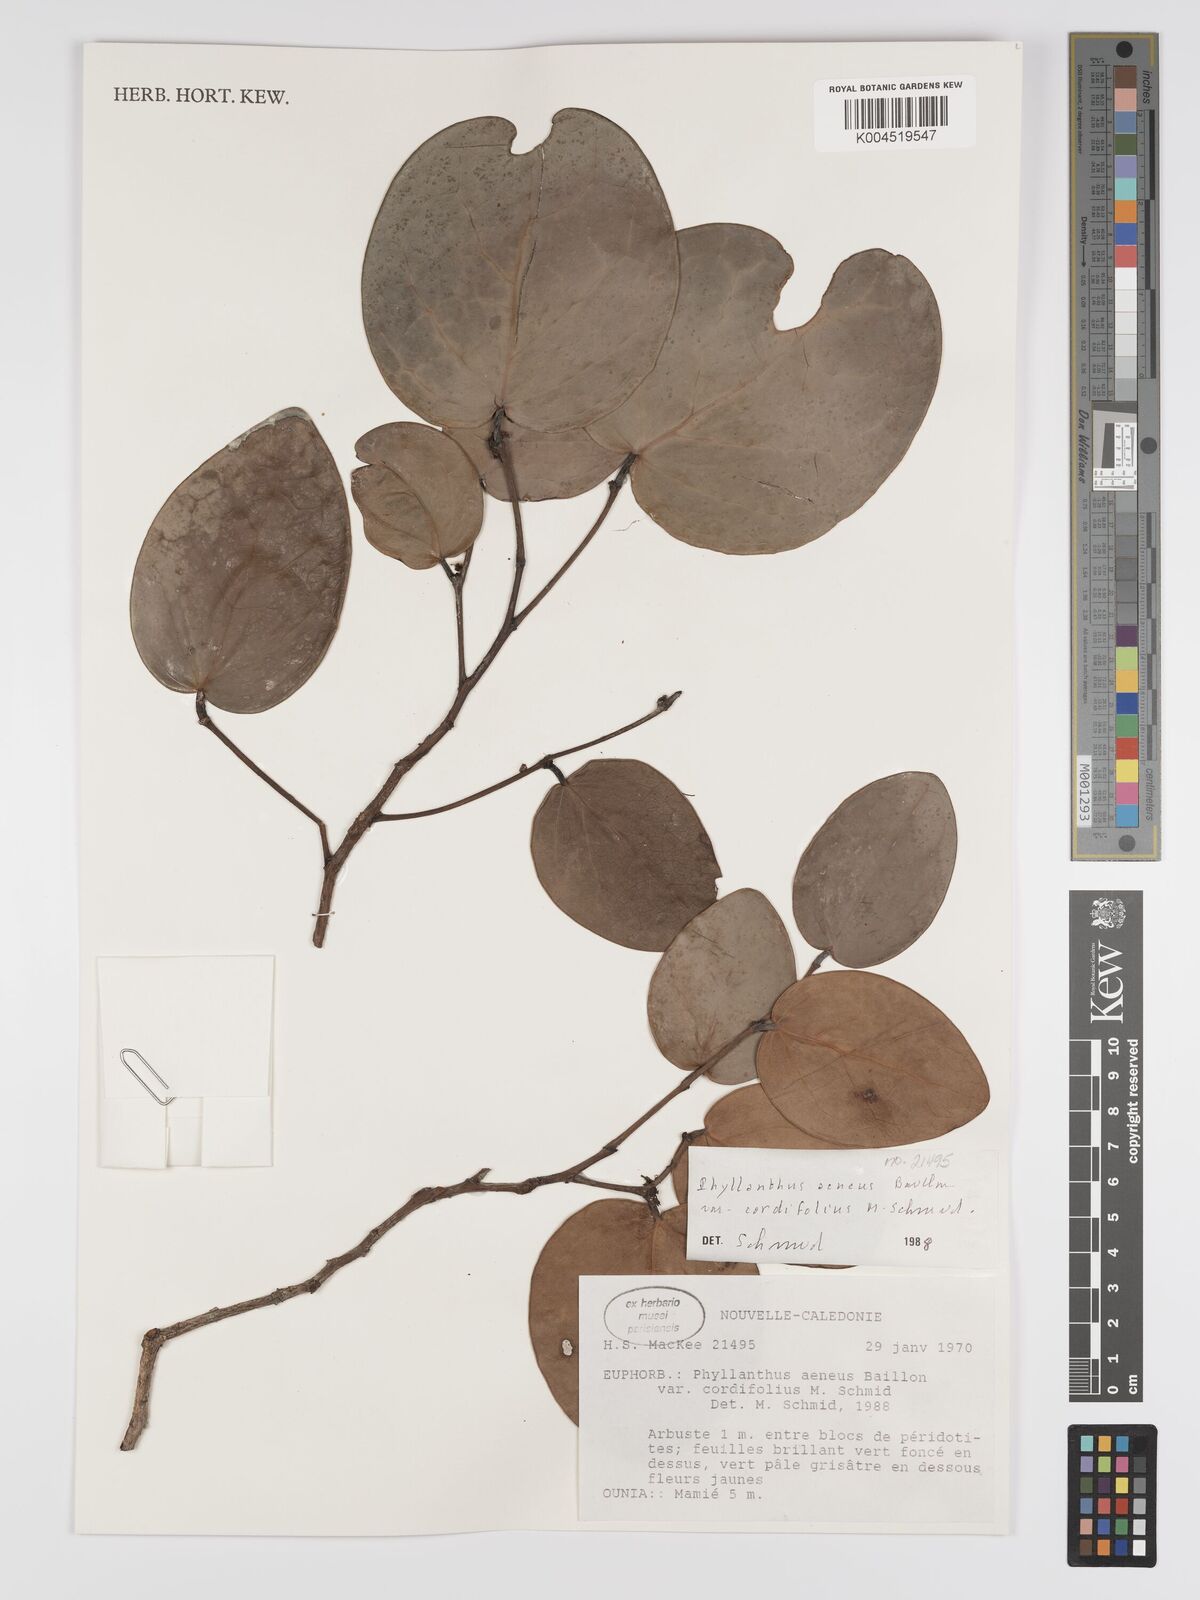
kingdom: Plantae
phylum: Tracheophyta
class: Magnoliopsida
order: Malpighiales
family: Phyllanthaceae
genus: Phyllanthus
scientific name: Phyllanthus aeneus
